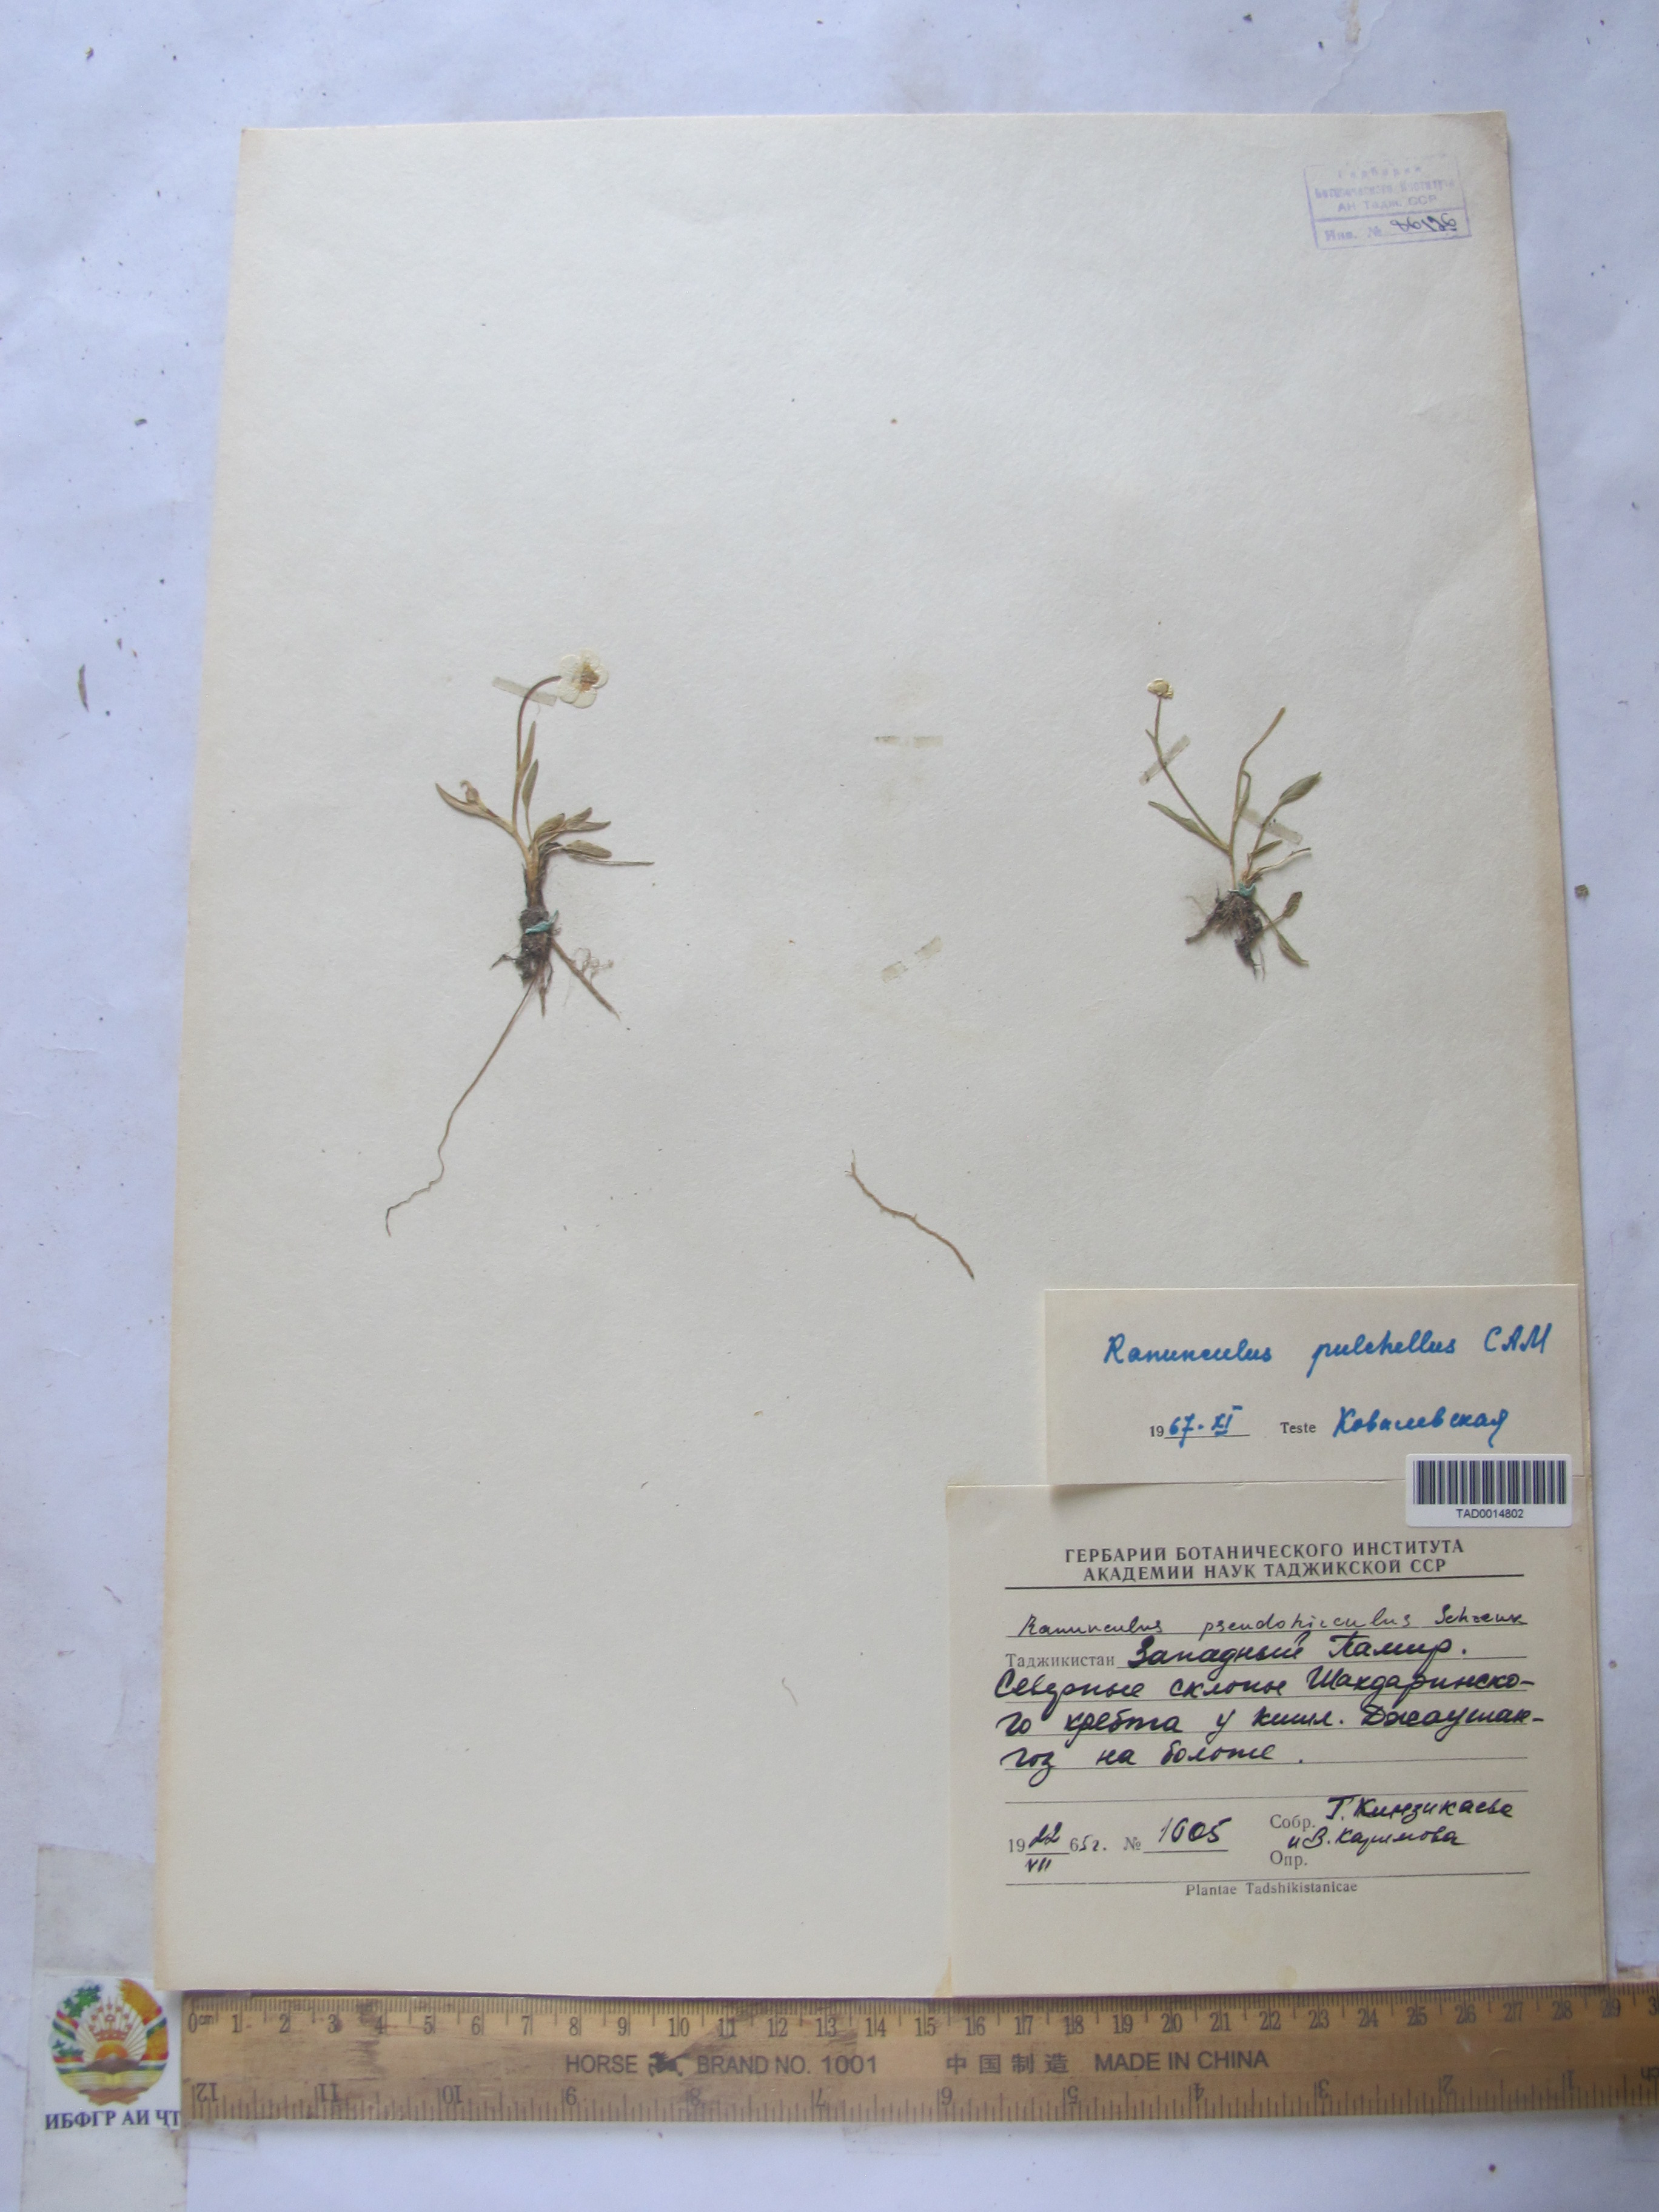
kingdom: Plantae
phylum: Tracheophyta
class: Magnoliopsida
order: Ranunculales
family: Ranunculaceae
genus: Ranunculus
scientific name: Ranunculus pseudohirculus
